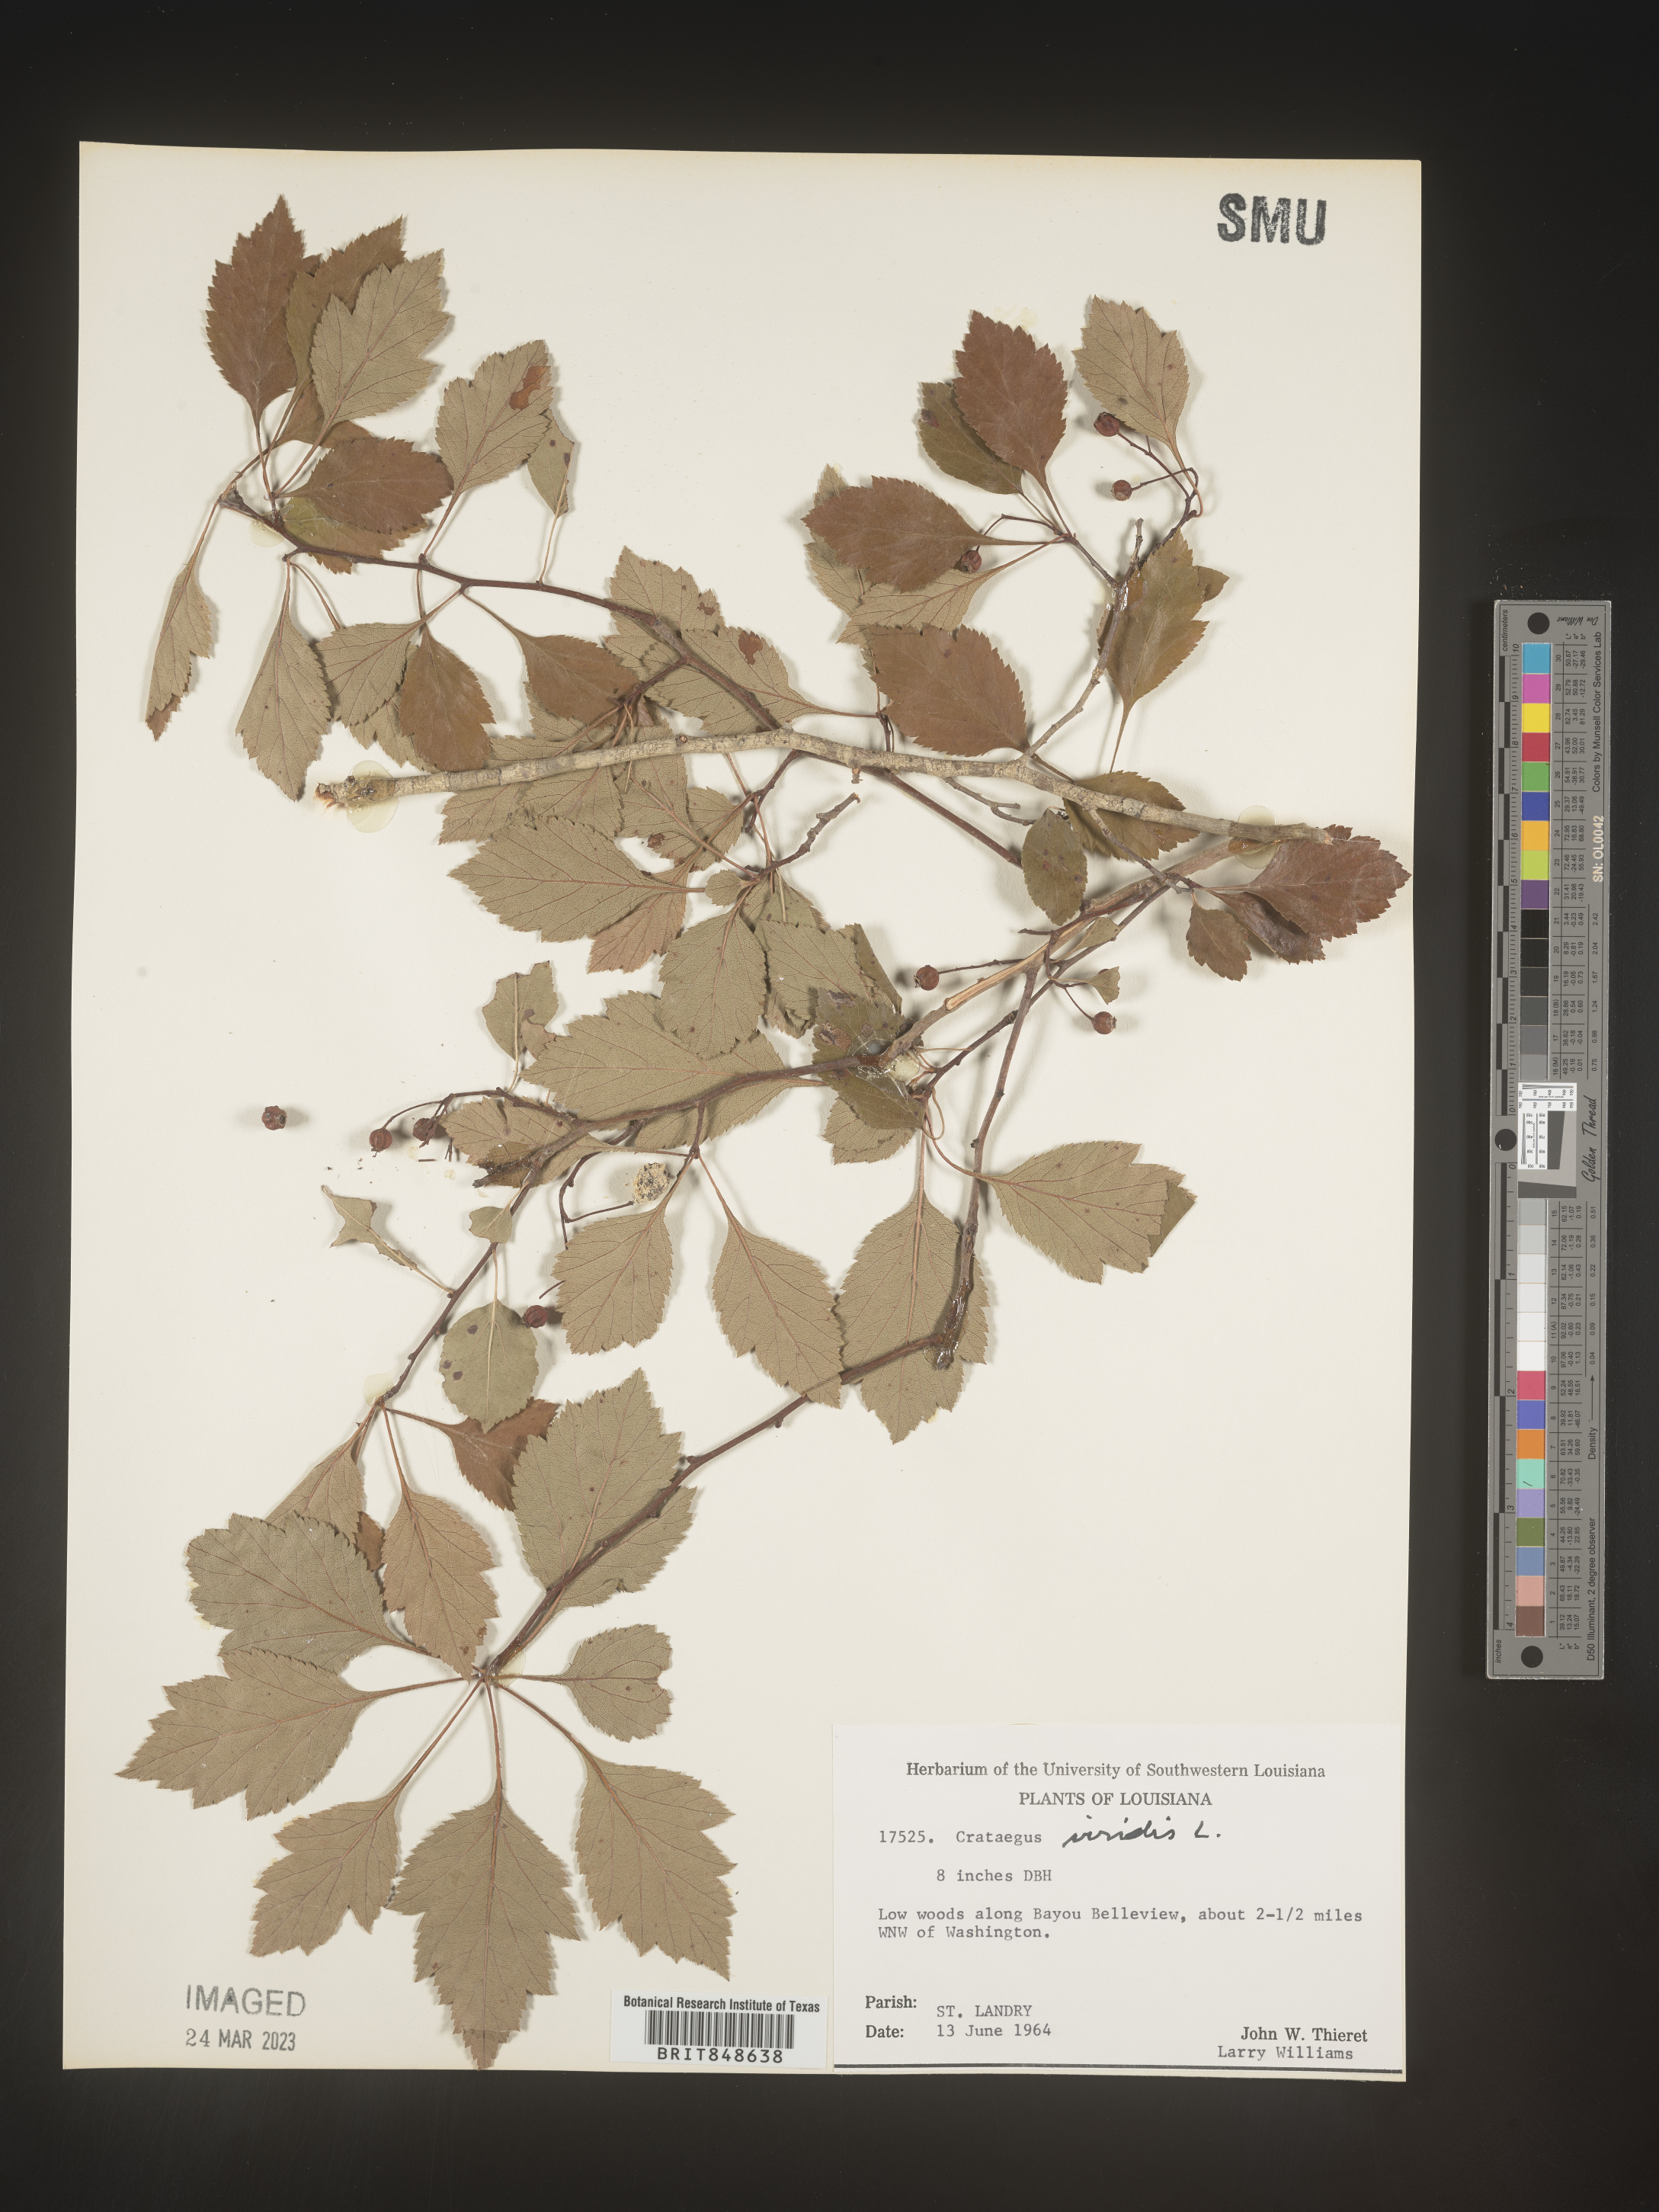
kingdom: Plantae
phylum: Tracheophyta
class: Magnoliopsida
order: Rosales
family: Rosaceae
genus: Crataegus
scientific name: Crataegus viridis
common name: Southernthorn
